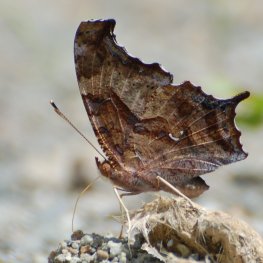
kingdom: Animalia
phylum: Arthropoda
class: Insecta
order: Lepidoptera
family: Nymphalidae
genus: Polygonia
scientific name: Polygonia interrogationis
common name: Question Mark
